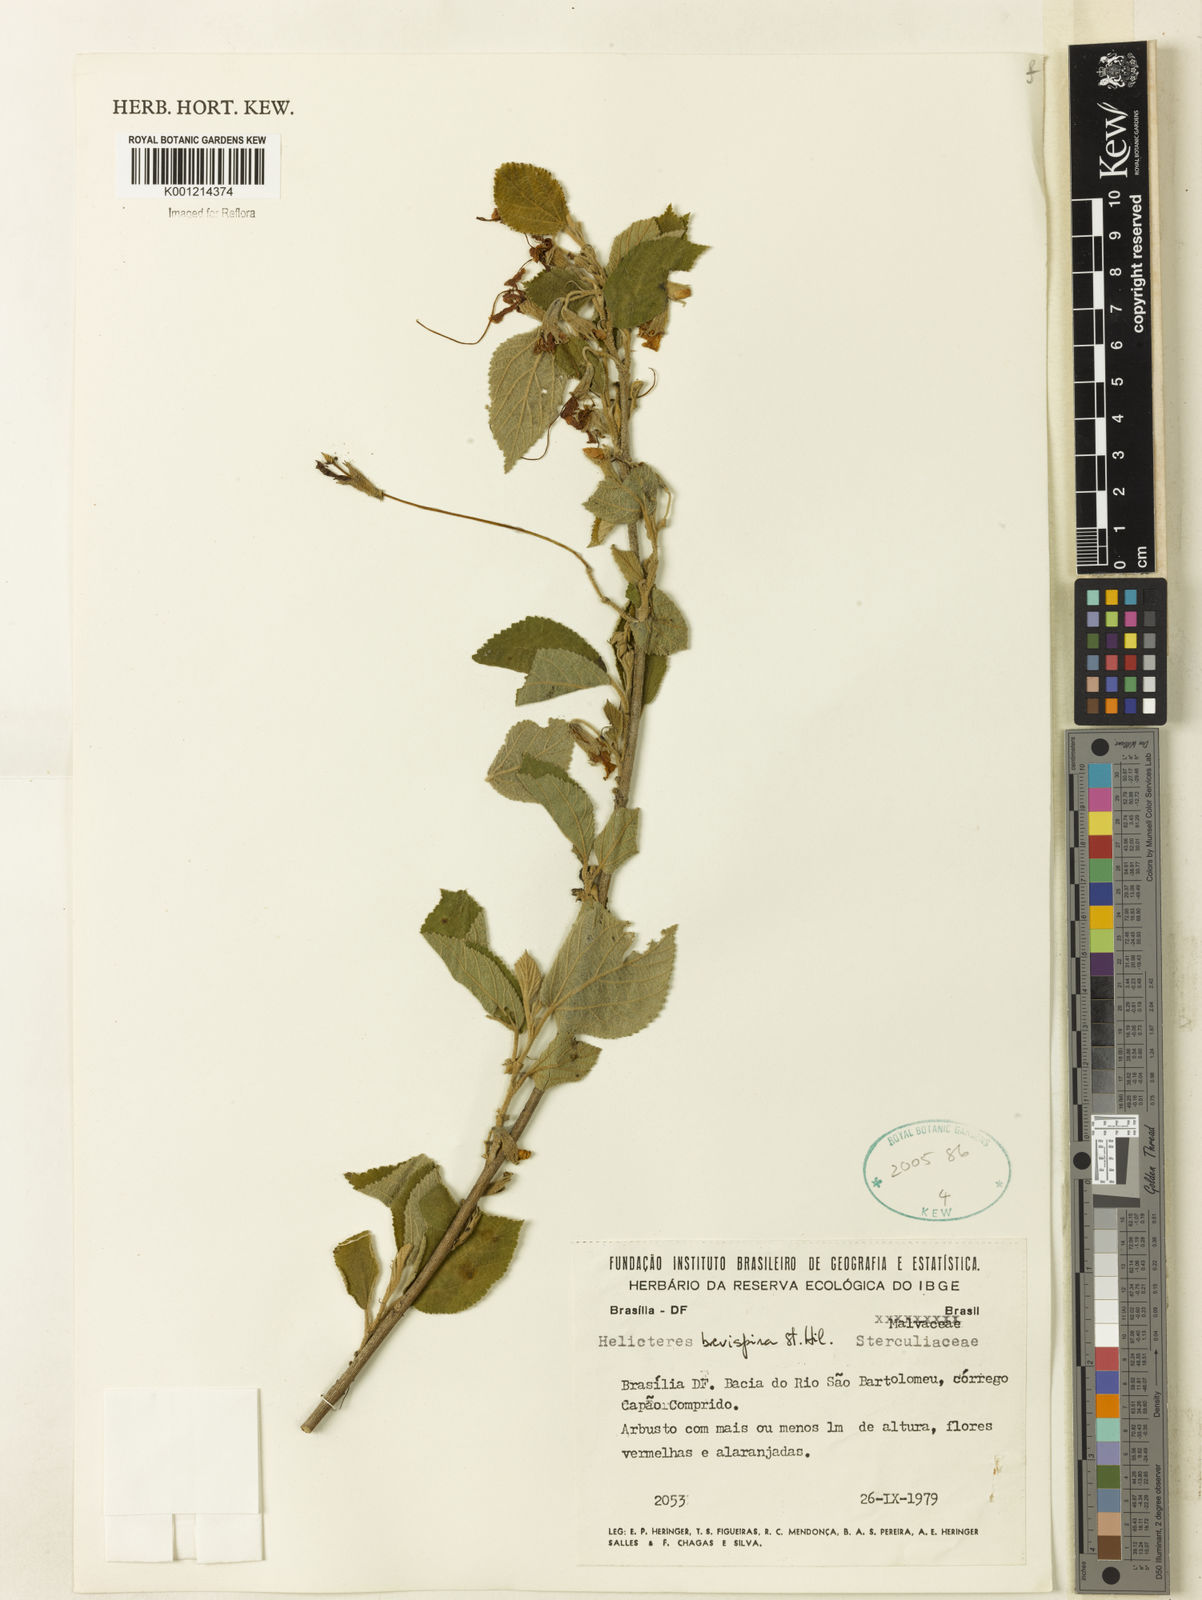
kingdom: Plantae
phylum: Tracheophyta
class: Magnoliopsida
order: Malvales
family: Malvaceae
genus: Helicteres
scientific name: Helicteres
